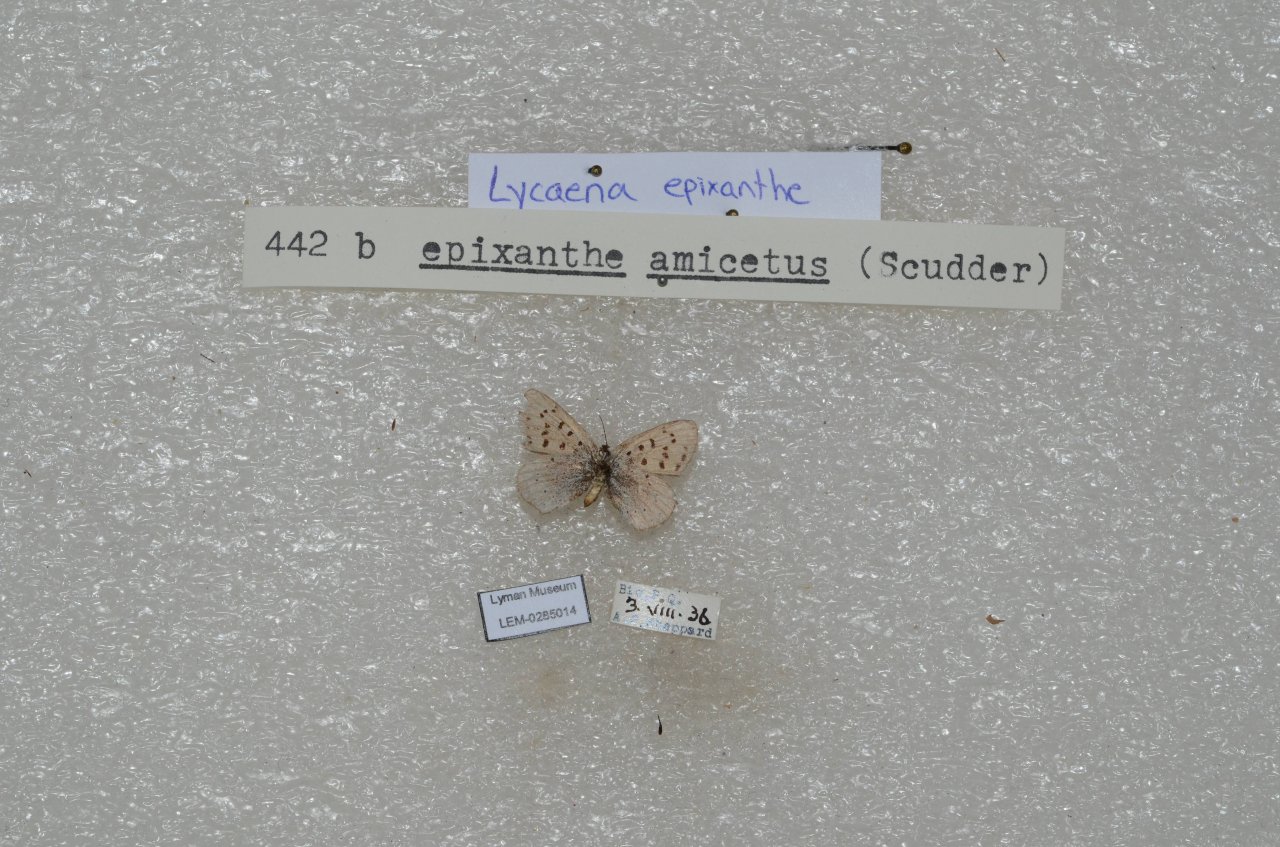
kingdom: Animalia
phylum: Arthropoda
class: Insecta
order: Lepidoptera
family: Sesiidae
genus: Sesia
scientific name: Sesia Lycaena epixanthe
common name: Bog Copper
